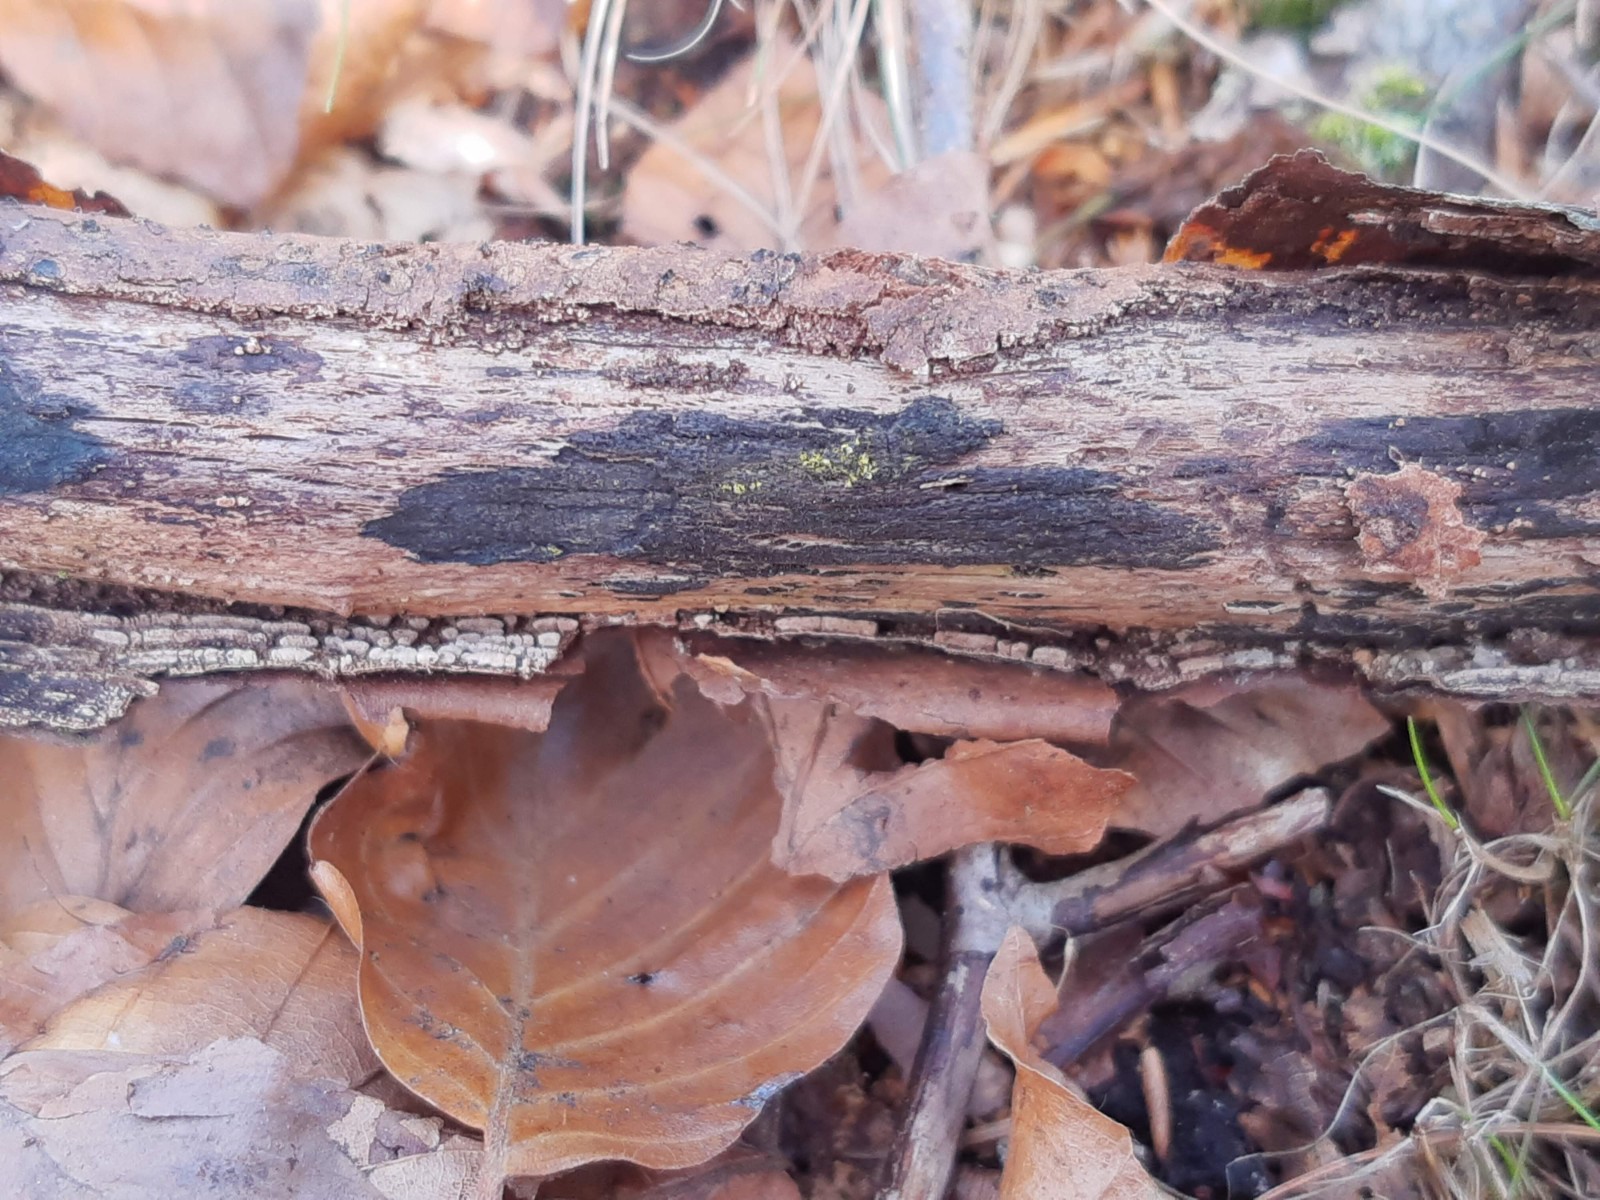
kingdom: Fungi
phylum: Ascomycota
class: Sordariomycetes
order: Xylariales
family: Diatrypaceae
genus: Eutypa
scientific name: Eutypa flavovirens
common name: grønkødet kulskorpe
